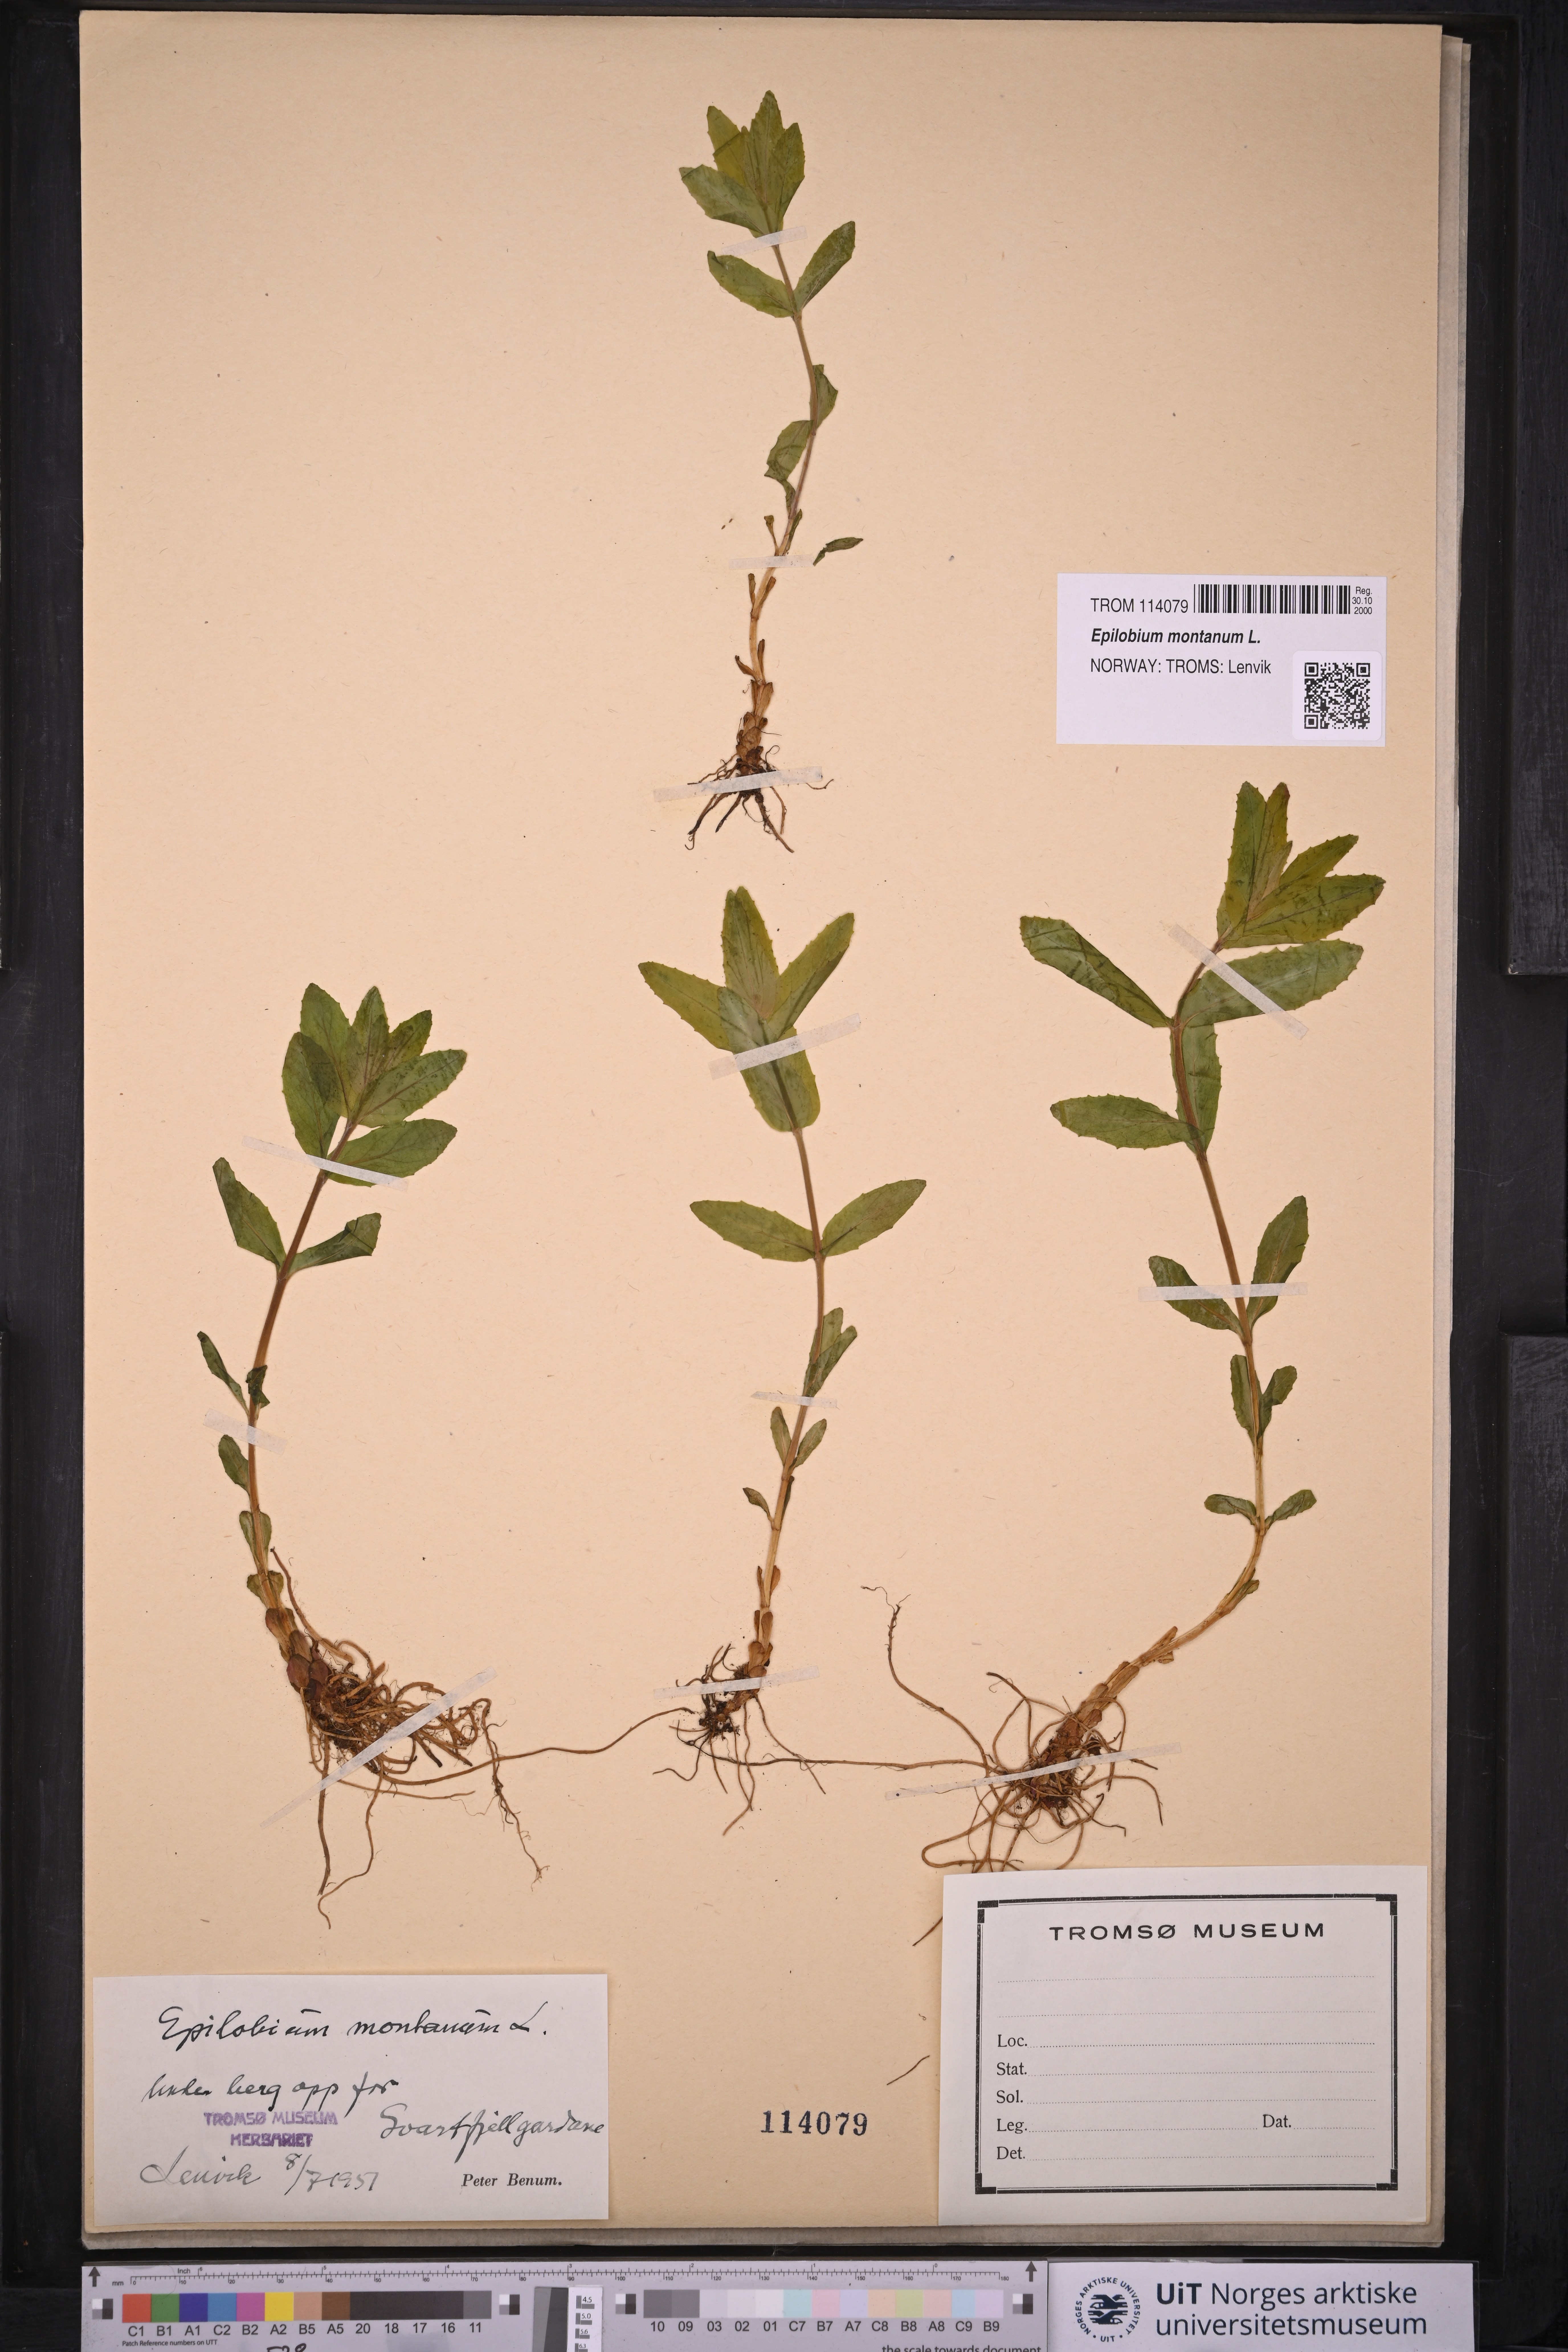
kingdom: Plantae
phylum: Tracheophyta
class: Magnoliopsida
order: Myrtales
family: Onagraceae
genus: Epilobium
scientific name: Epilobium montanum
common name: Broad-leaved willowherb
